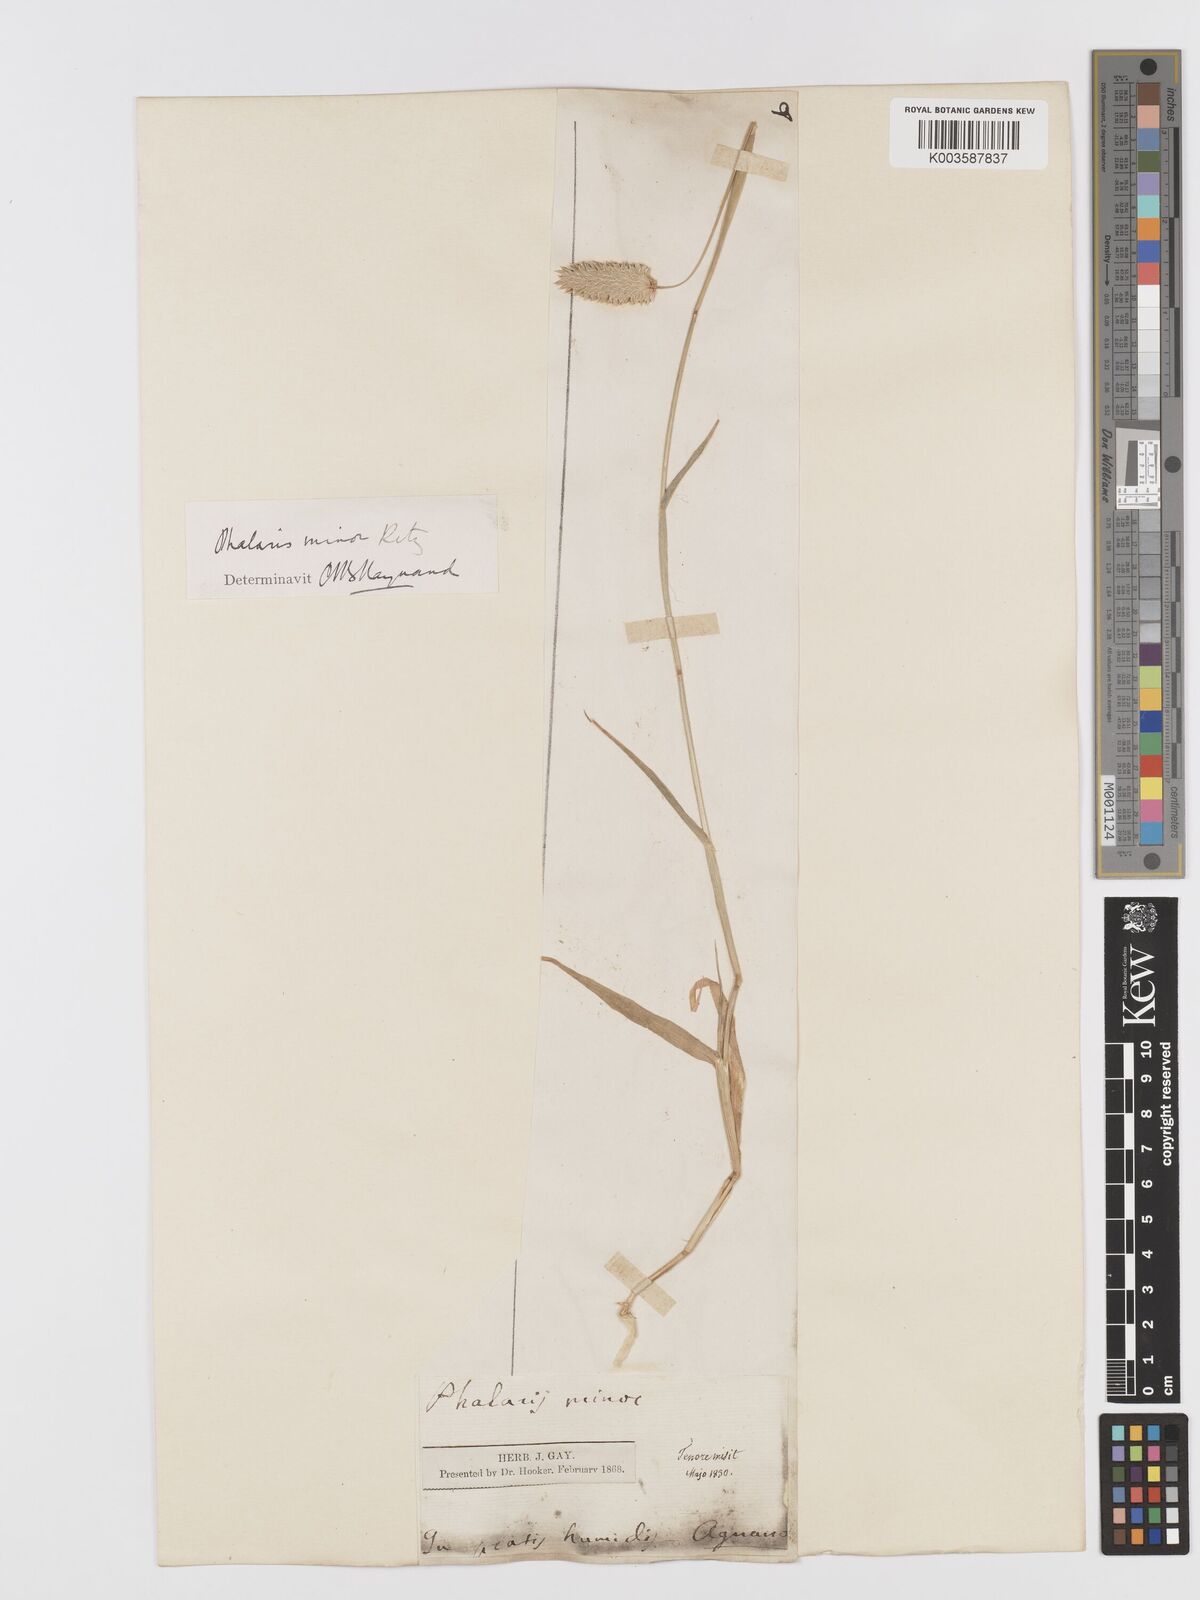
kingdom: Plantae
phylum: Tracheophyta
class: Liliopsida
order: Poales
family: Poaceae
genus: Phalaris
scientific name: Phalaris minor
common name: Littleseed canarygrass
